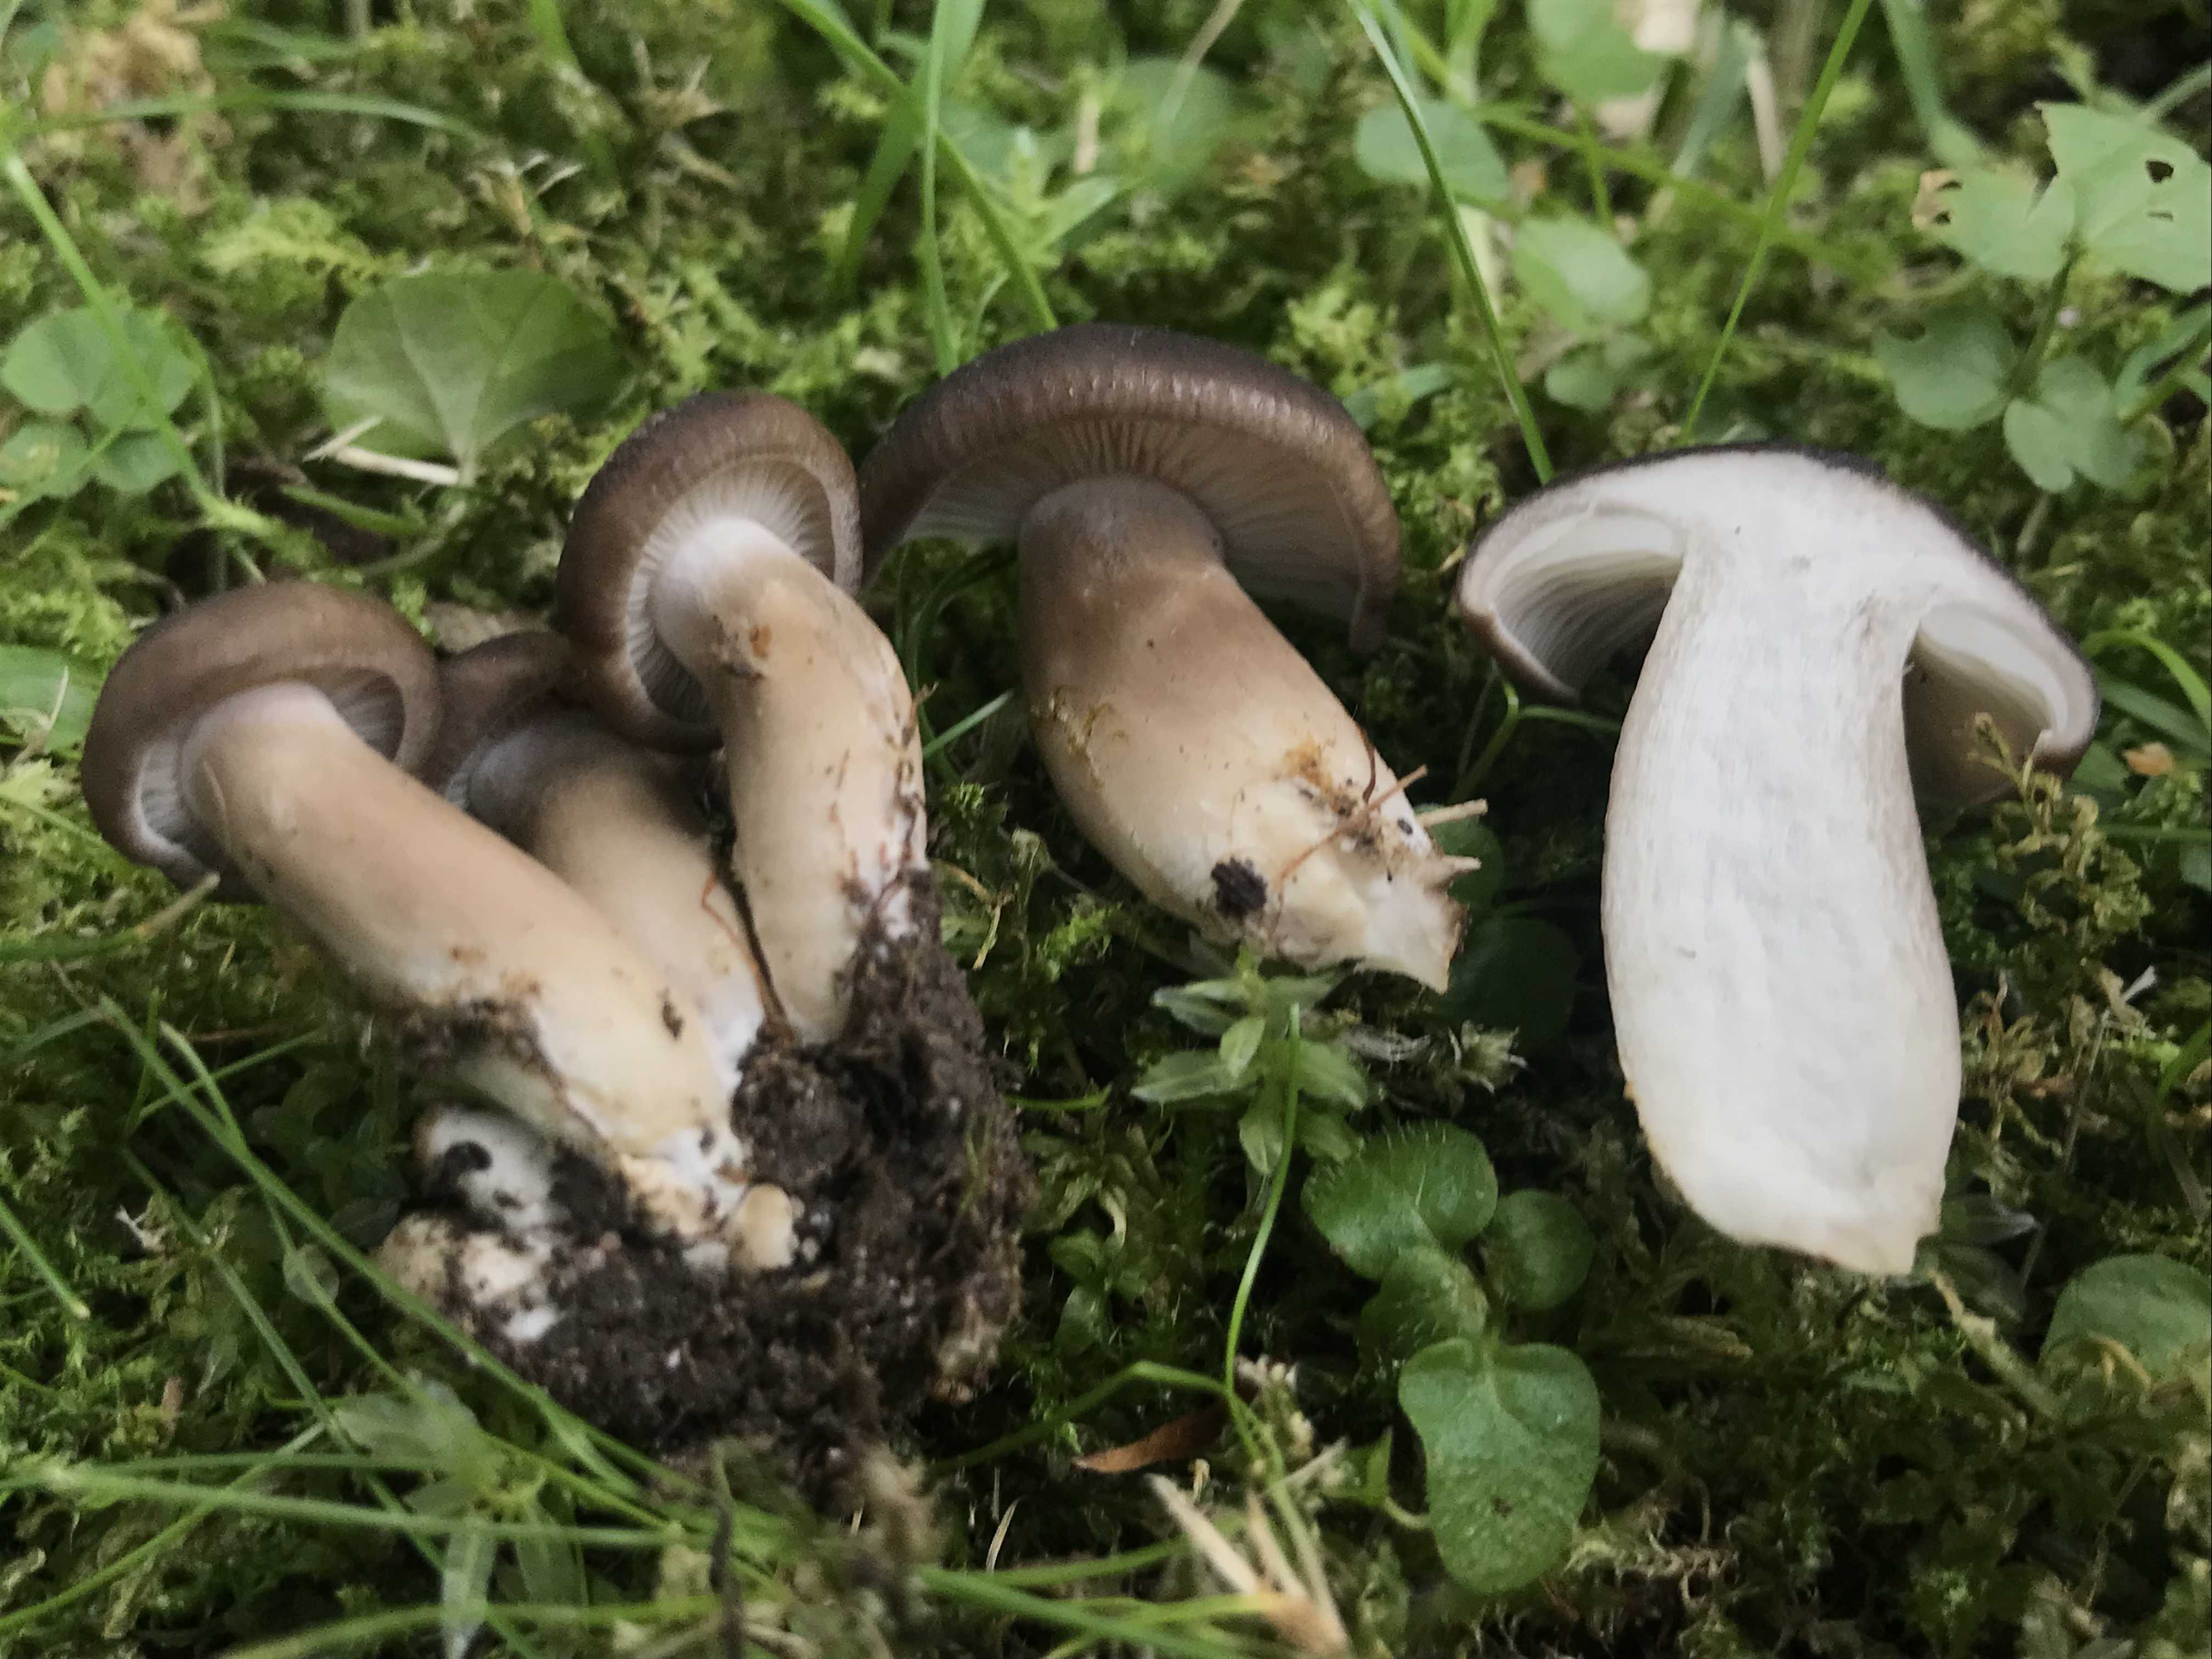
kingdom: Fungi
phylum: Basidiomycota
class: Agaricomycetes
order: Agaricales
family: Lyophyllaceae
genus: Lyophyllum
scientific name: Lyophyllum decastes
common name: røggrå gråblad
